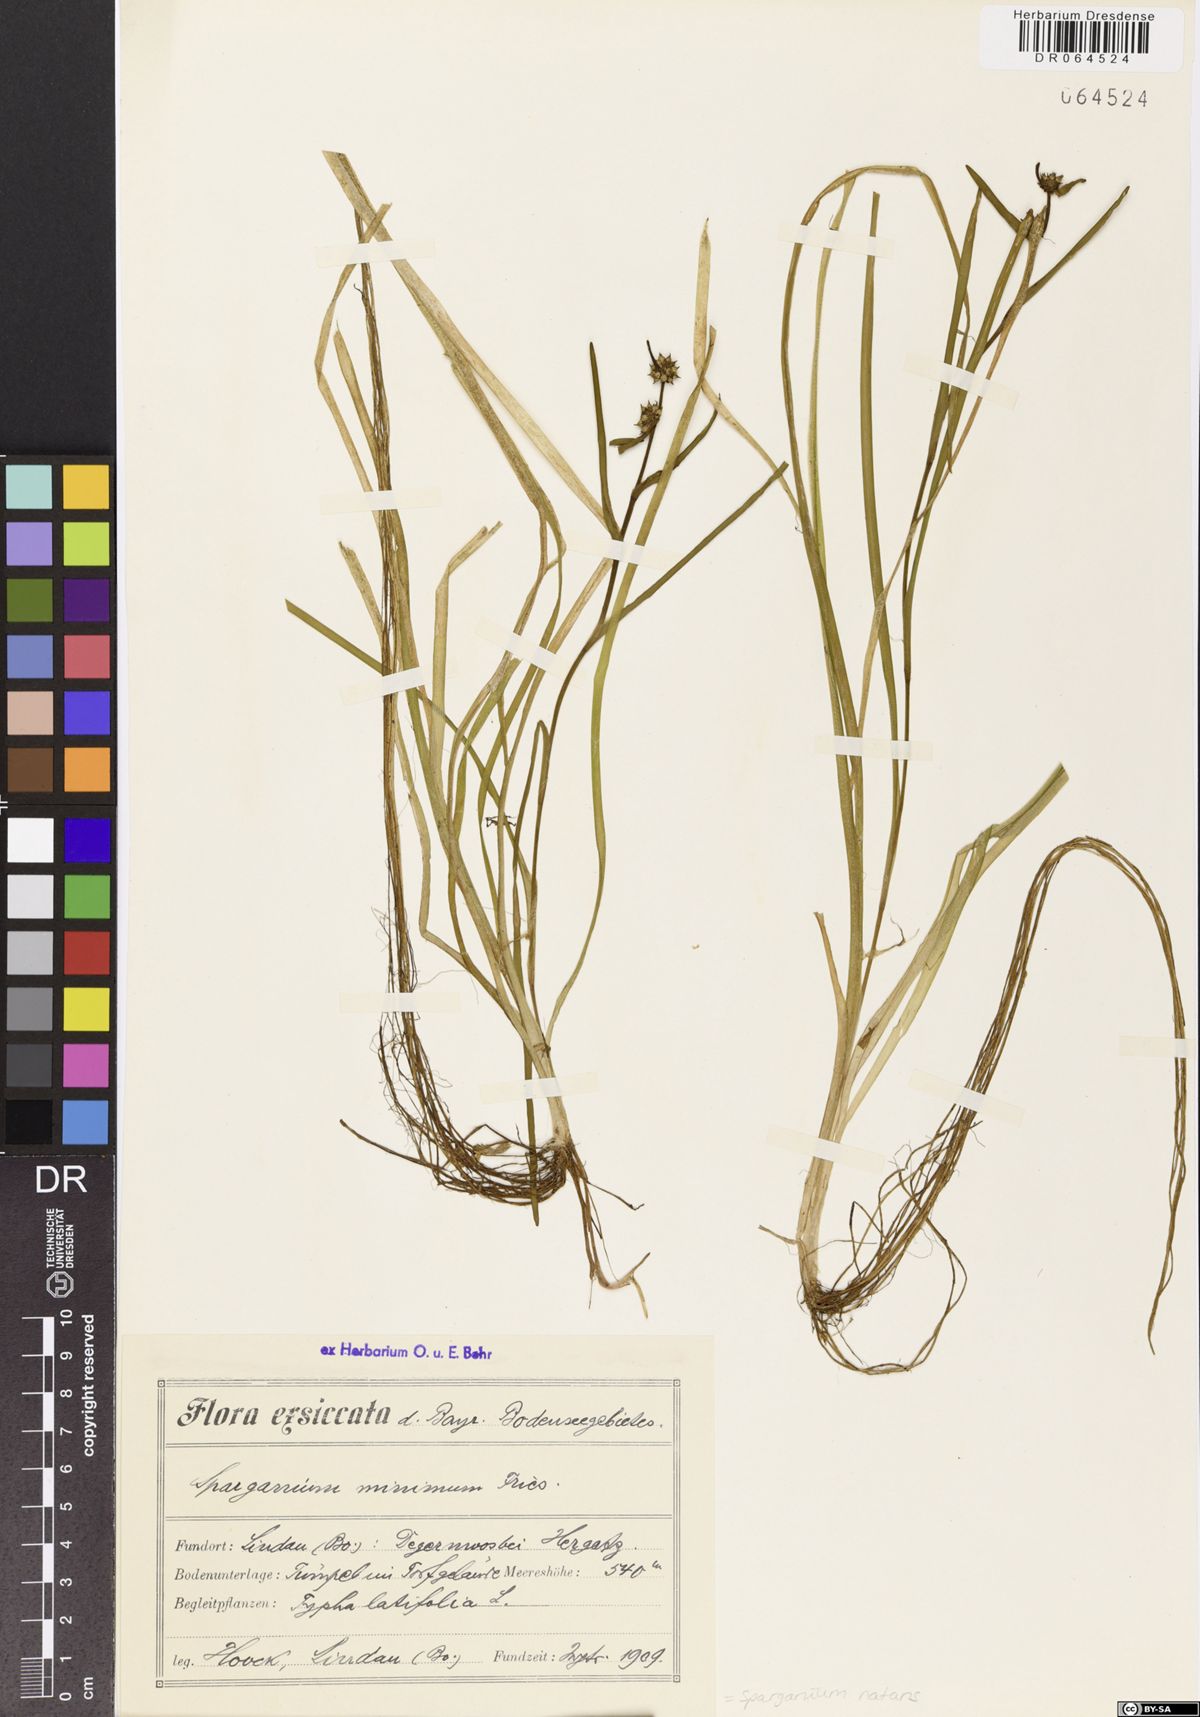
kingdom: Plantae
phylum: Tracheophyta
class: Liliopsida
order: Poales
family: Typhaceae
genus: Sparganium
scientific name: Sparganium natans
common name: Least bur-reed
